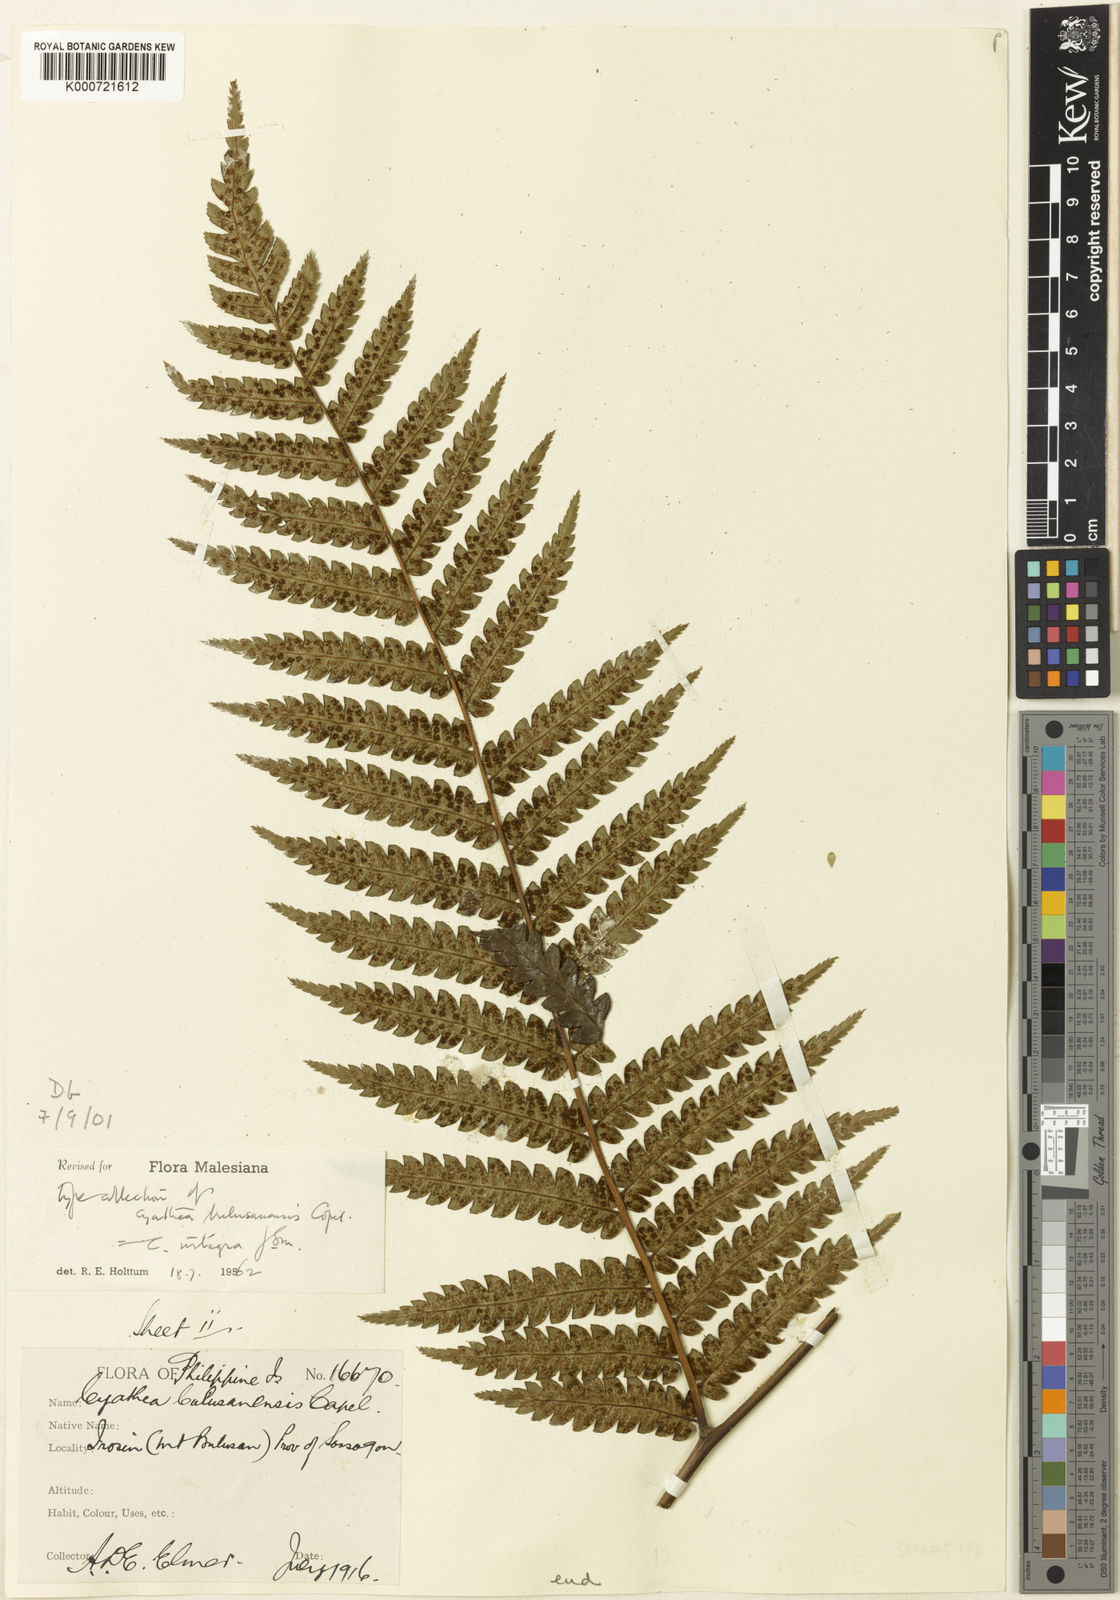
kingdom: Plantae
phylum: Tracheophyta
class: Polypodiopsida
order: Cyatheales
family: Cyatheaceae
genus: Sphaeropteris
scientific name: Sphaeropteris integra
